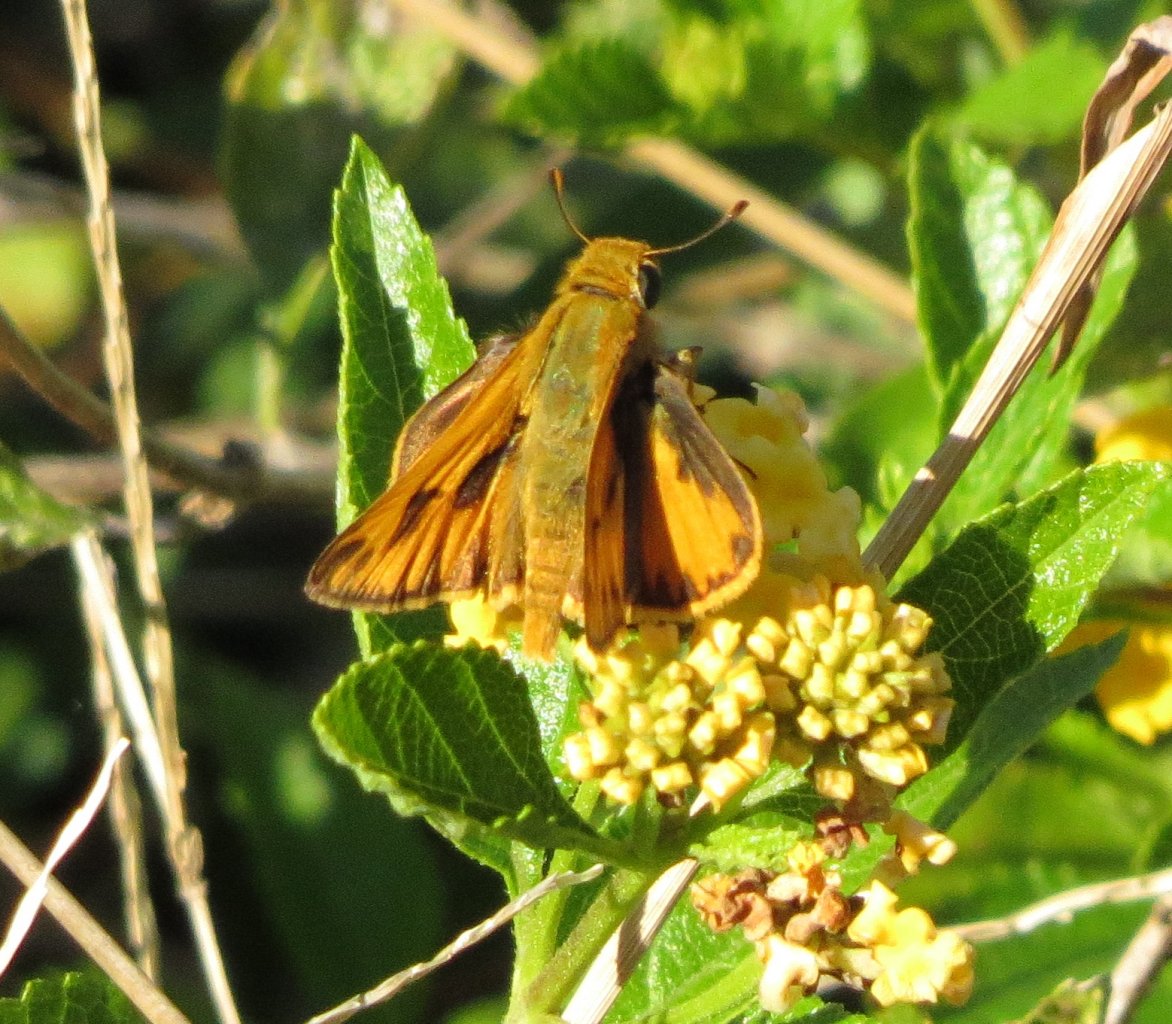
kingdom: Animalia
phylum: Arthropoda
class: Insecta
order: Lepidoptera
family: Hesperiidae
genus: Hylephila
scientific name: Hylephila phyleus
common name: Fiery Skipper
